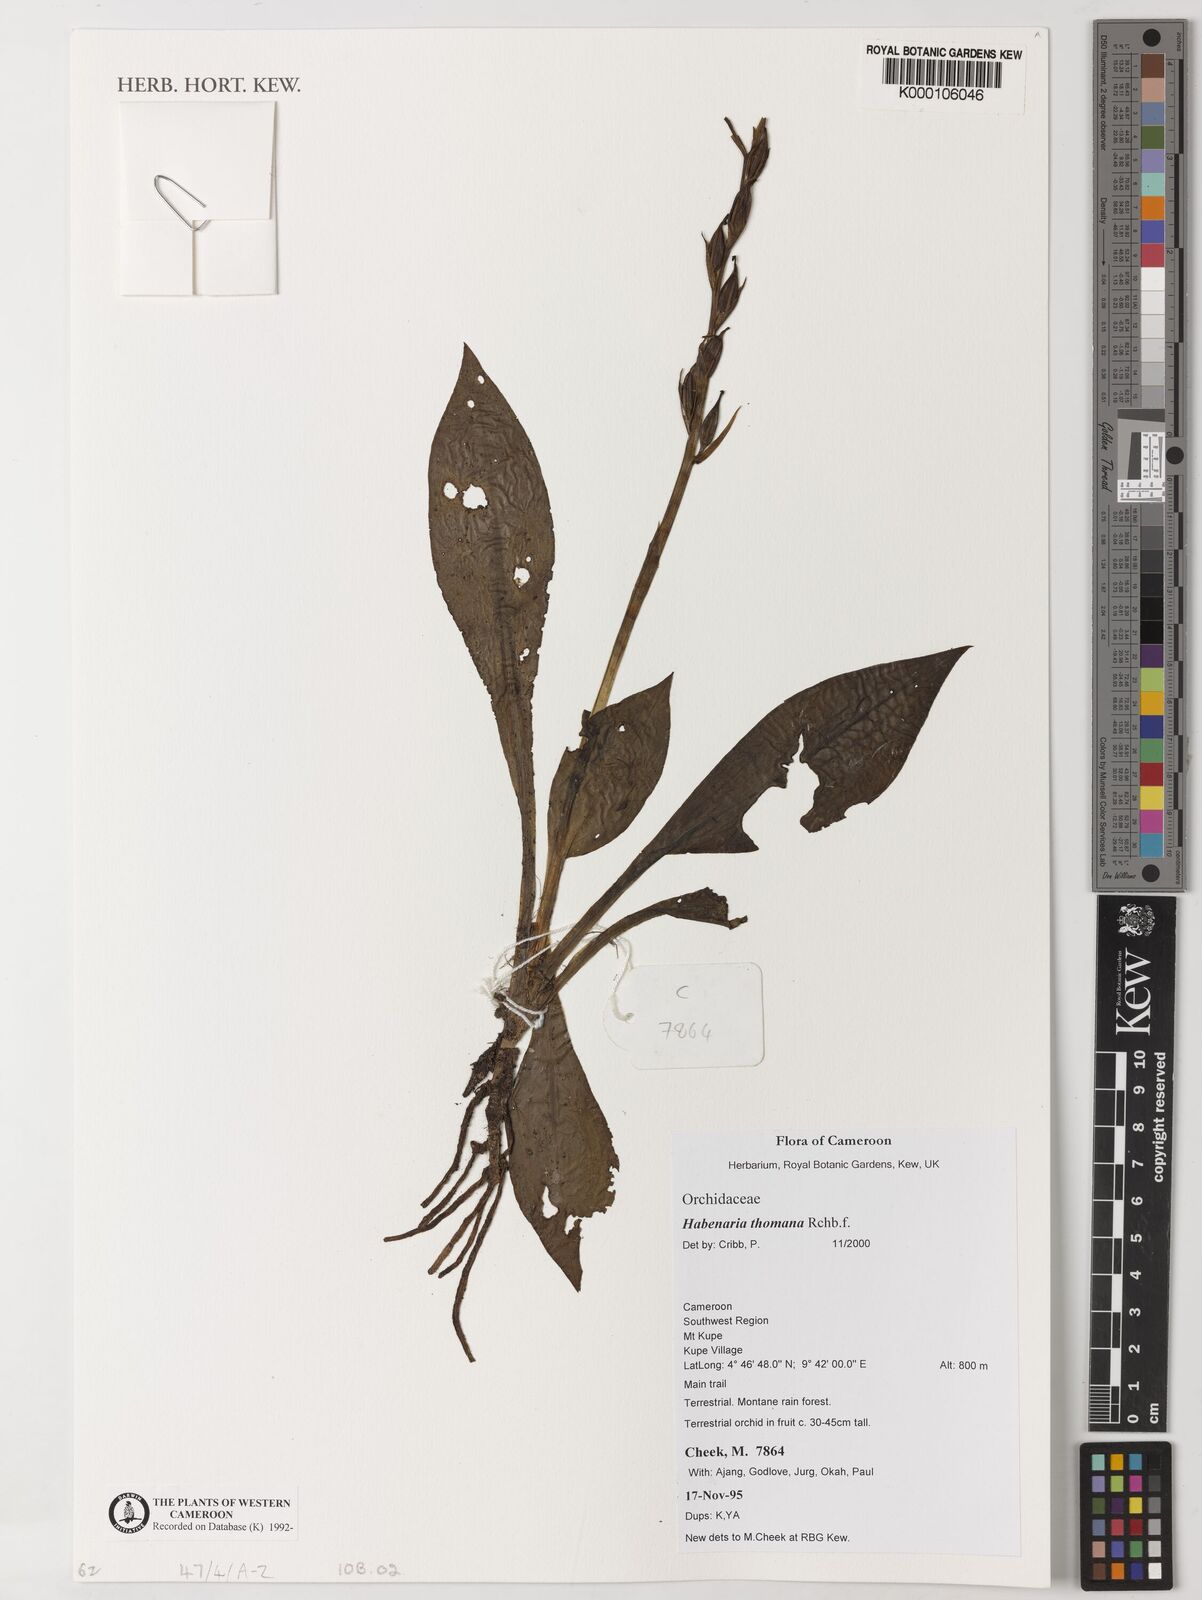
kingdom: Plantae
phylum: Tracheophyta
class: Liliopsida
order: Asparagales
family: Orchidaceae
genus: Habenaria
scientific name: Habenaria thomana
